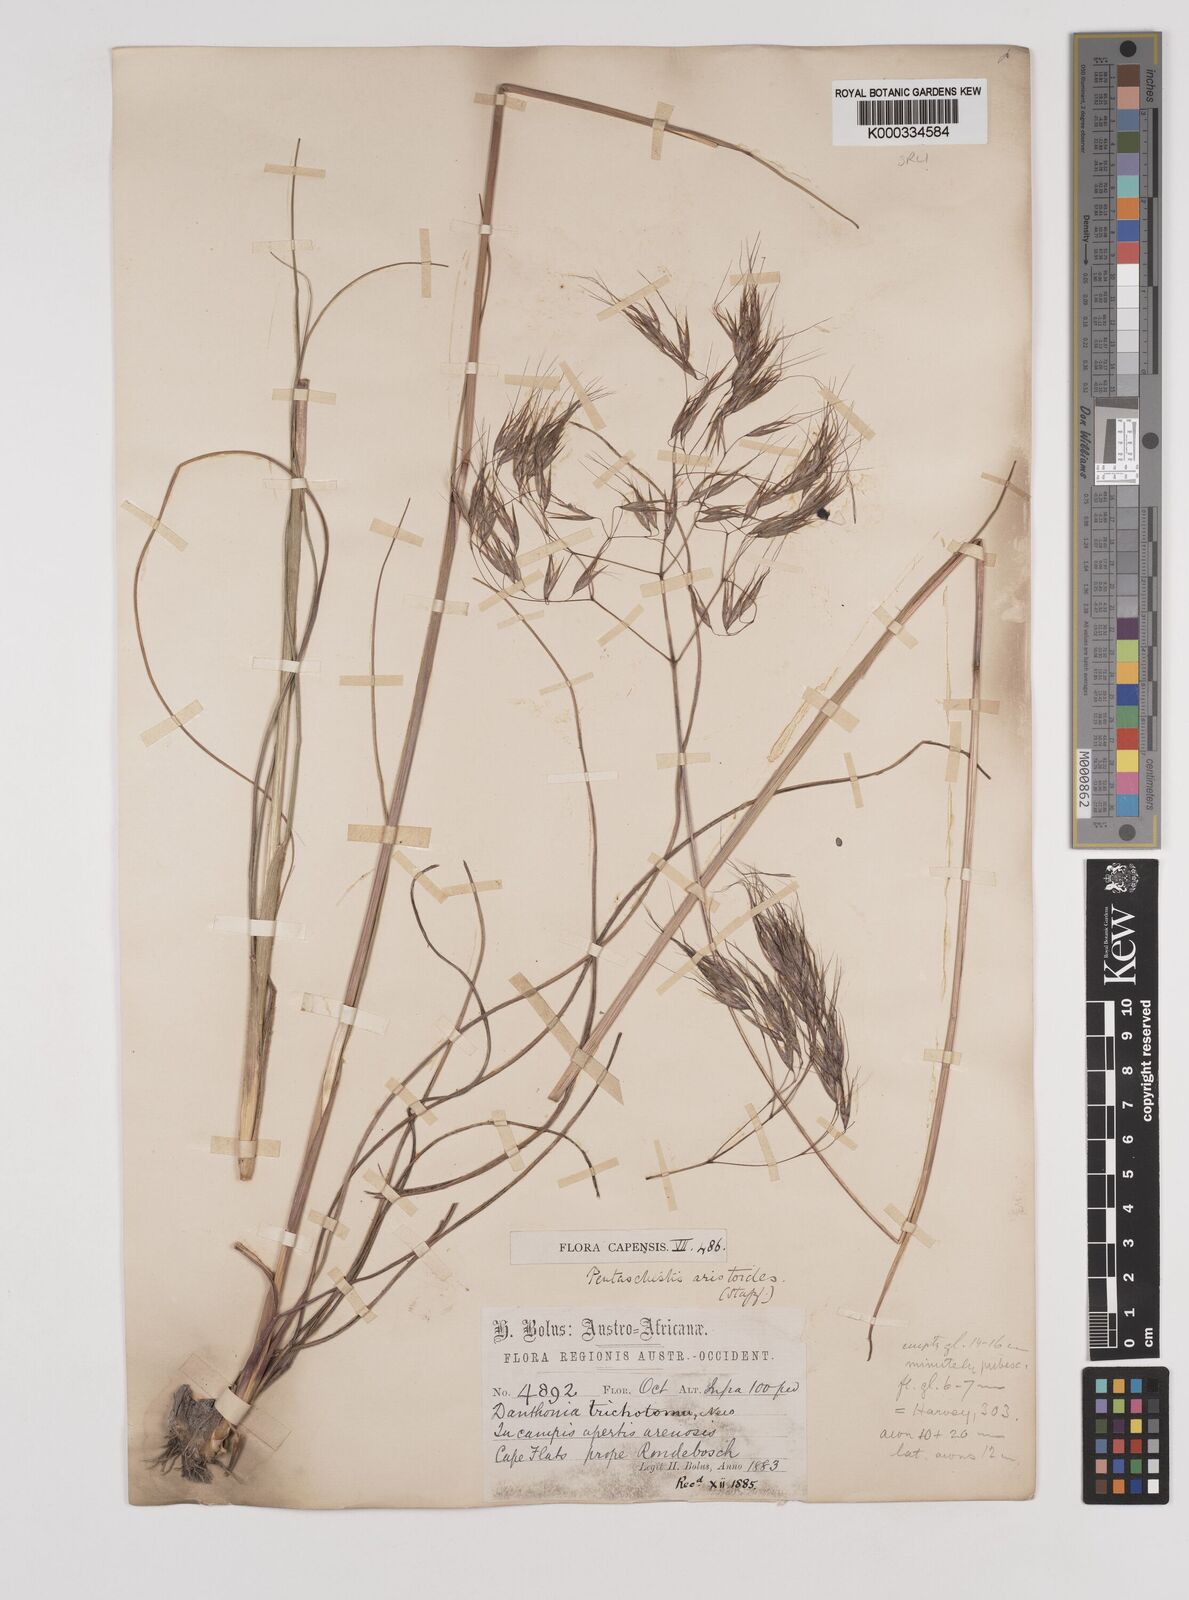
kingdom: Plantae
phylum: Tracheophyta
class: Liliopsida
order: Poales
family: Poaceae
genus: Pentameris
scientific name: Pentameris aristidoides
